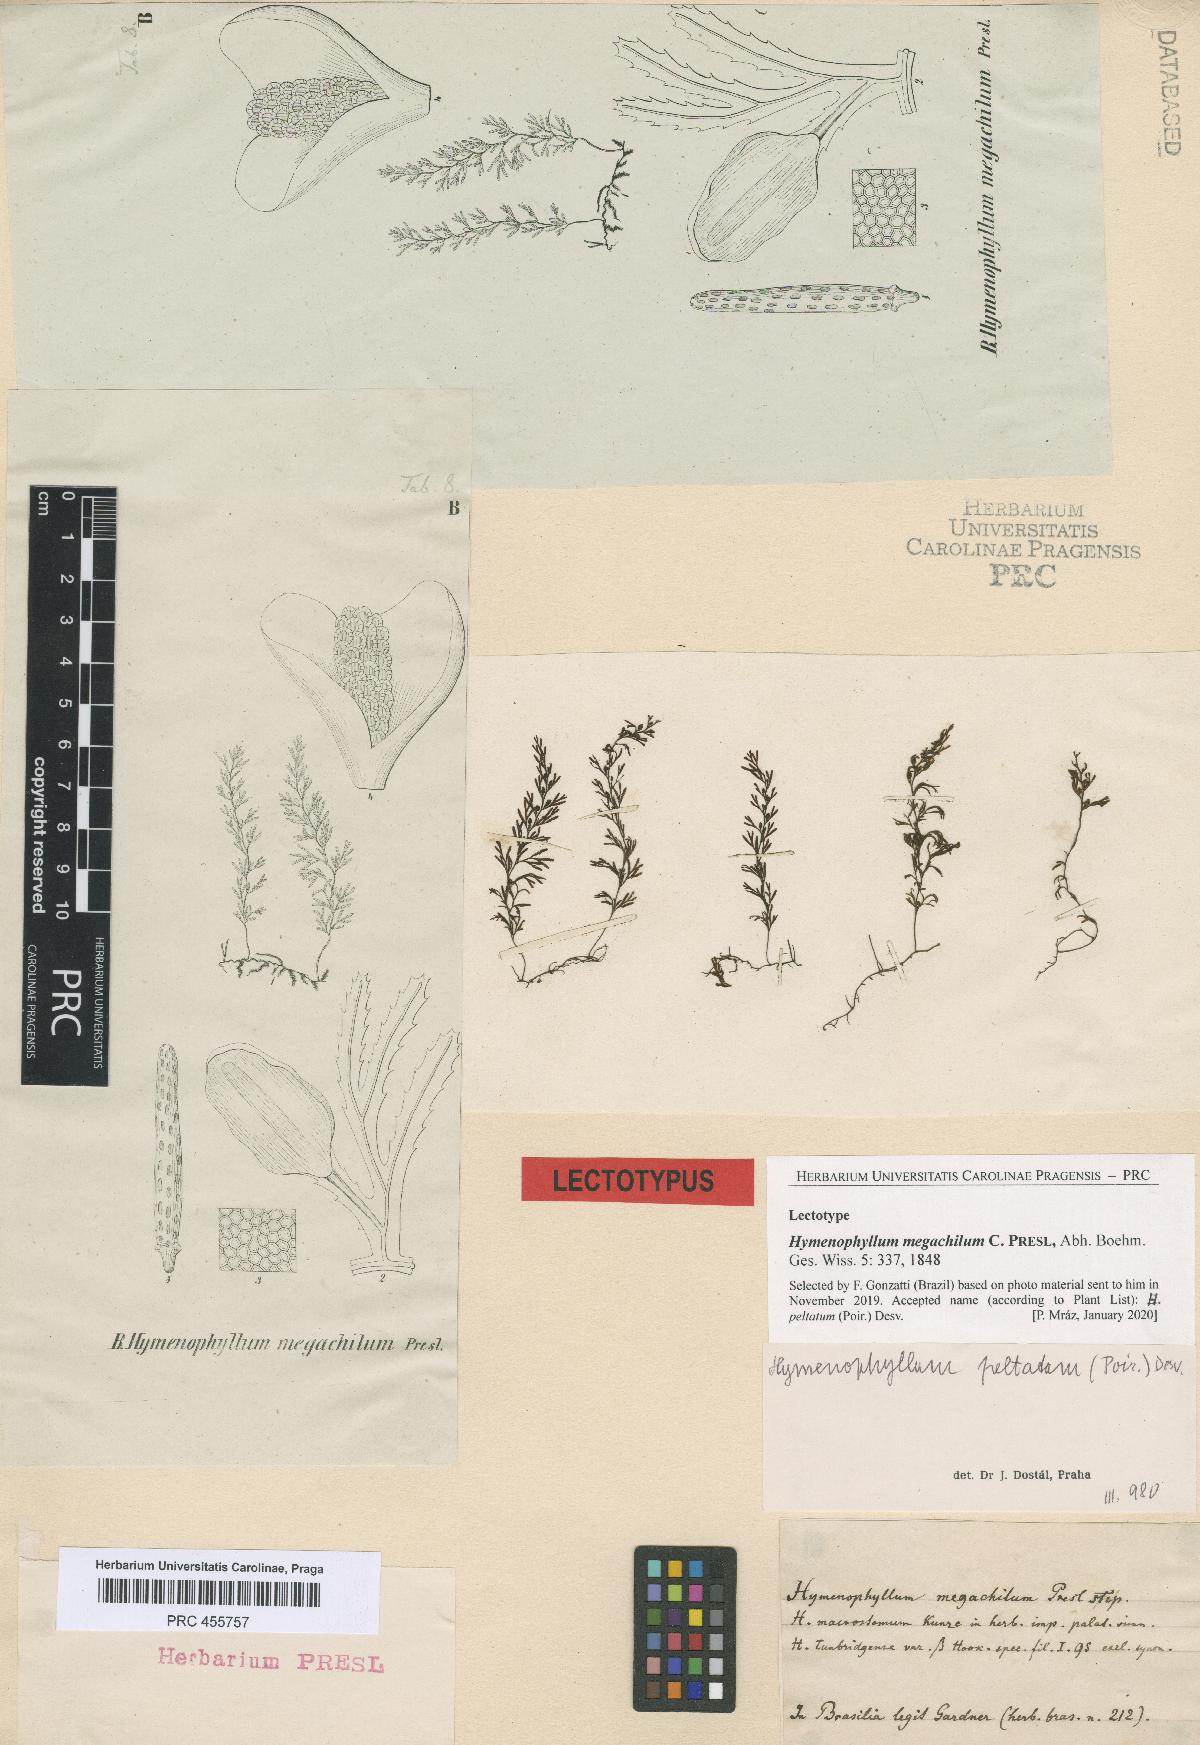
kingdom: Plantae
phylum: Tracheophyta
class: Polypodiopsida
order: Hymenophyllales
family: Hymenophyllaceae
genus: Hymenophyllum
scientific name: Hymenophyllum peltatum
